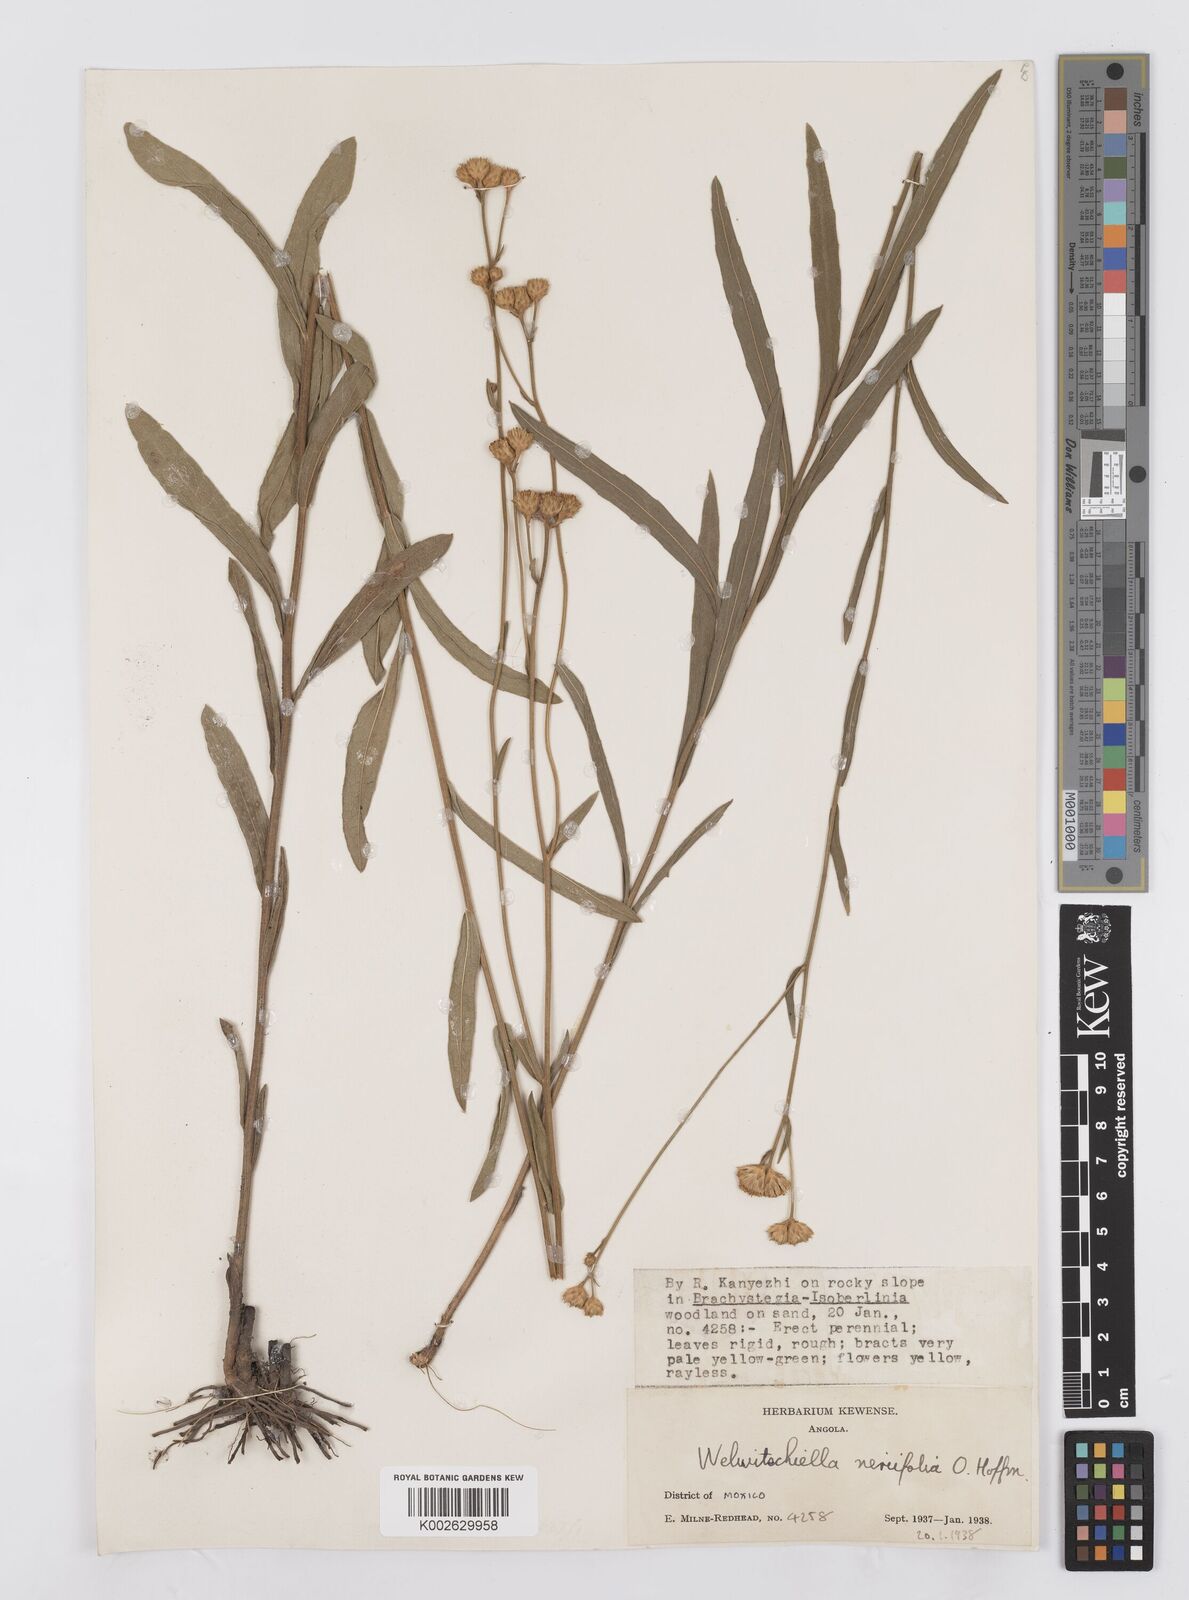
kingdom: Plantae
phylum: Tracheophyta
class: Magnoliopsida
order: Asterales
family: Asteraceae
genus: Welwitschiella
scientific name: Welwitschiella neriifolia
